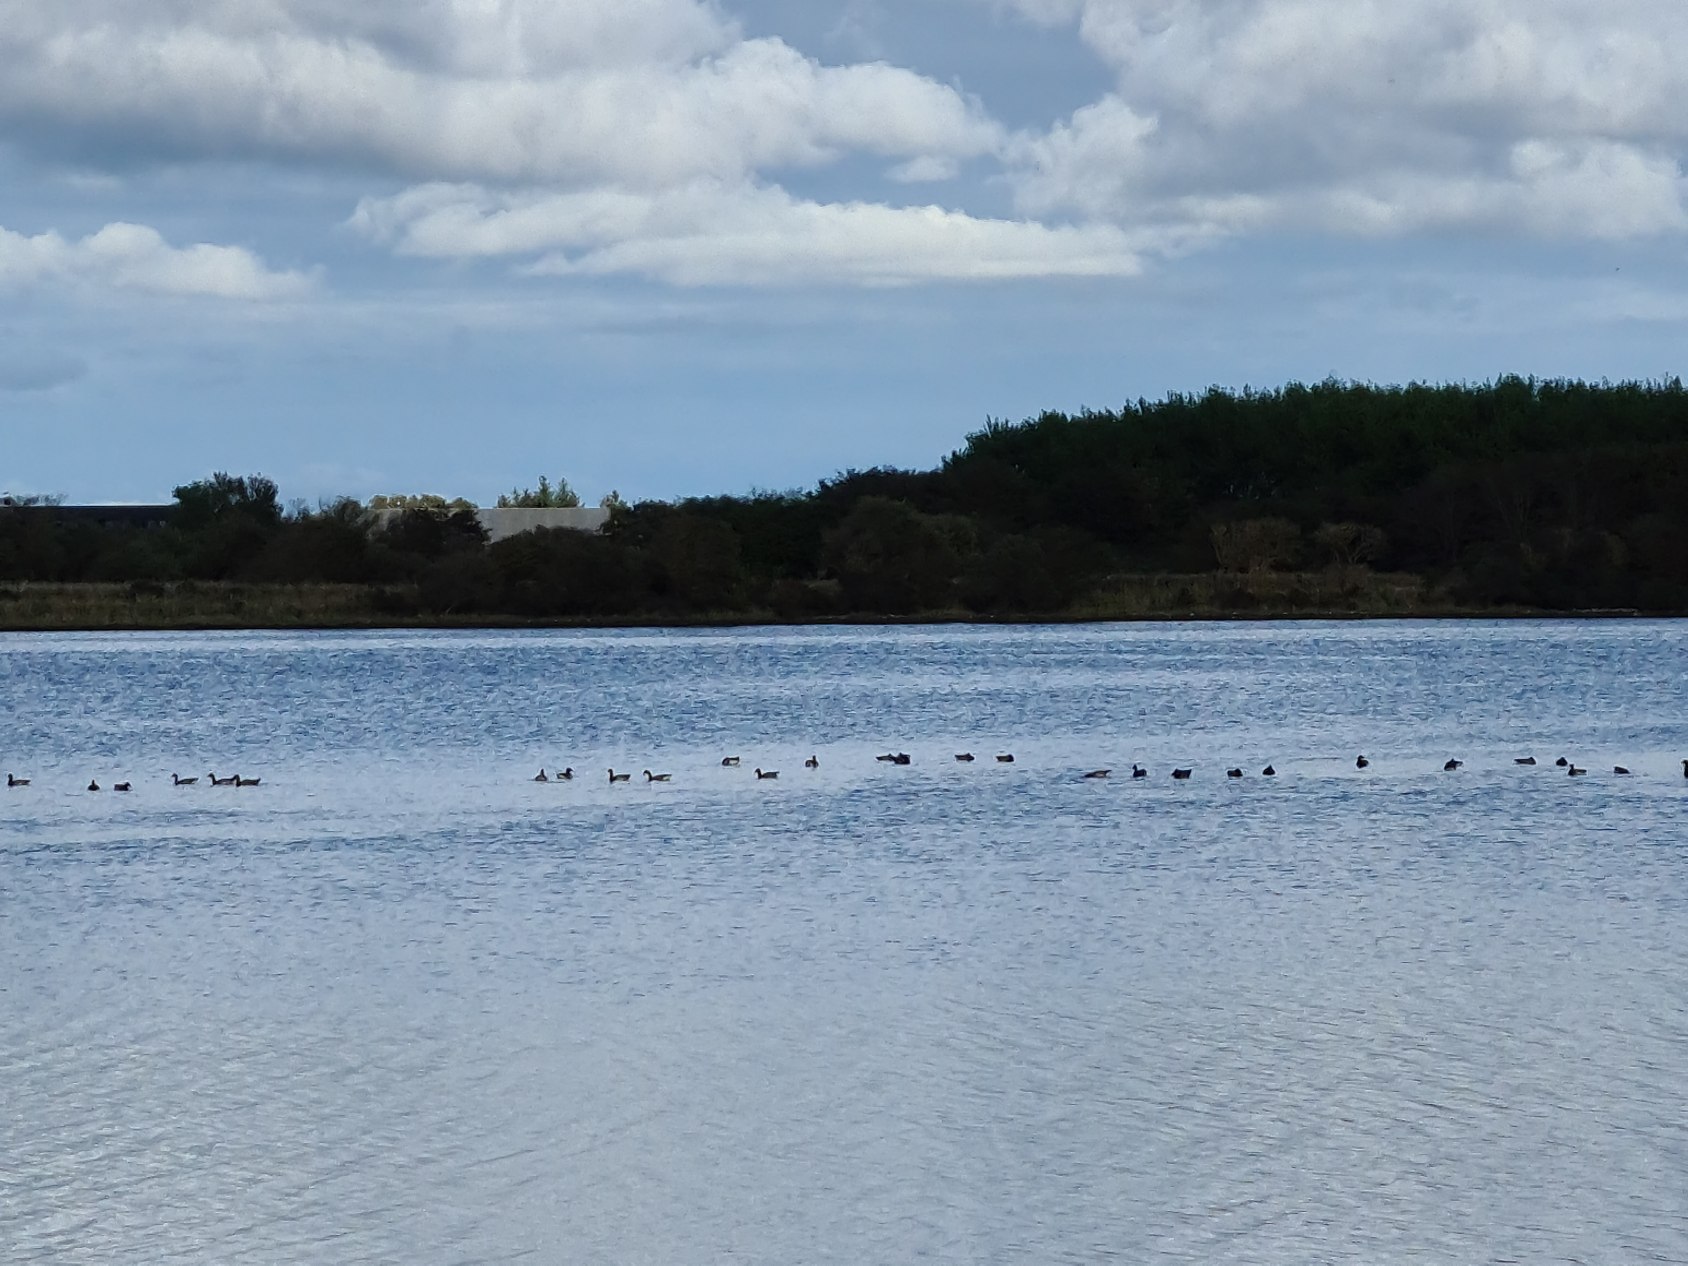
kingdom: Animalia
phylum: Chordata
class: Aves
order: Anseriformes
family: Anatidae
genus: Branta
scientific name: Branta bernicla
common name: Lysbuget knortegås
